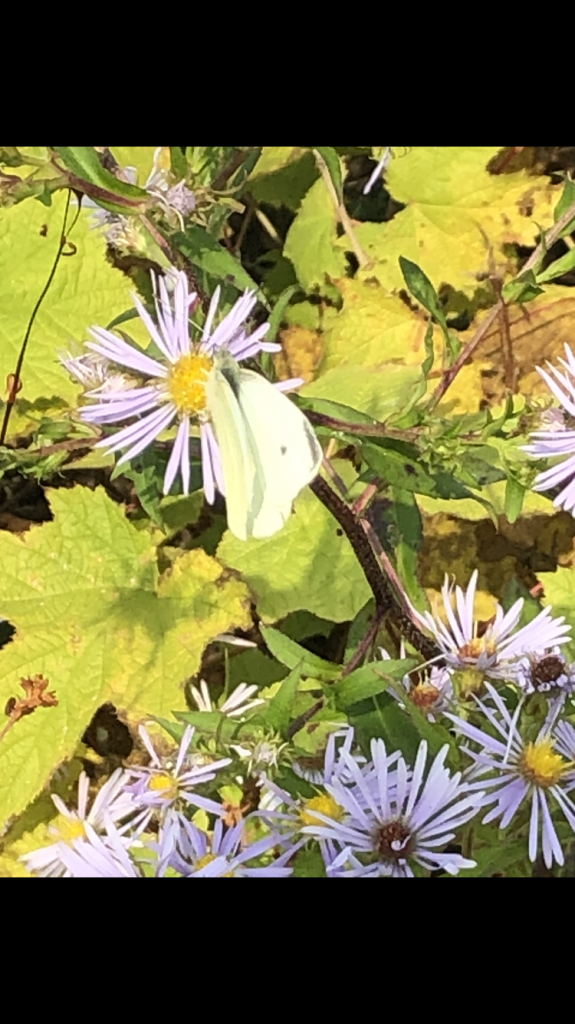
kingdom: Animalia
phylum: Arthropoda
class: Insecta
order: Lepidoptera
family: Pieridae
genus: Pieris
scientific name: Pieris rapae
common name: Cabbage White
